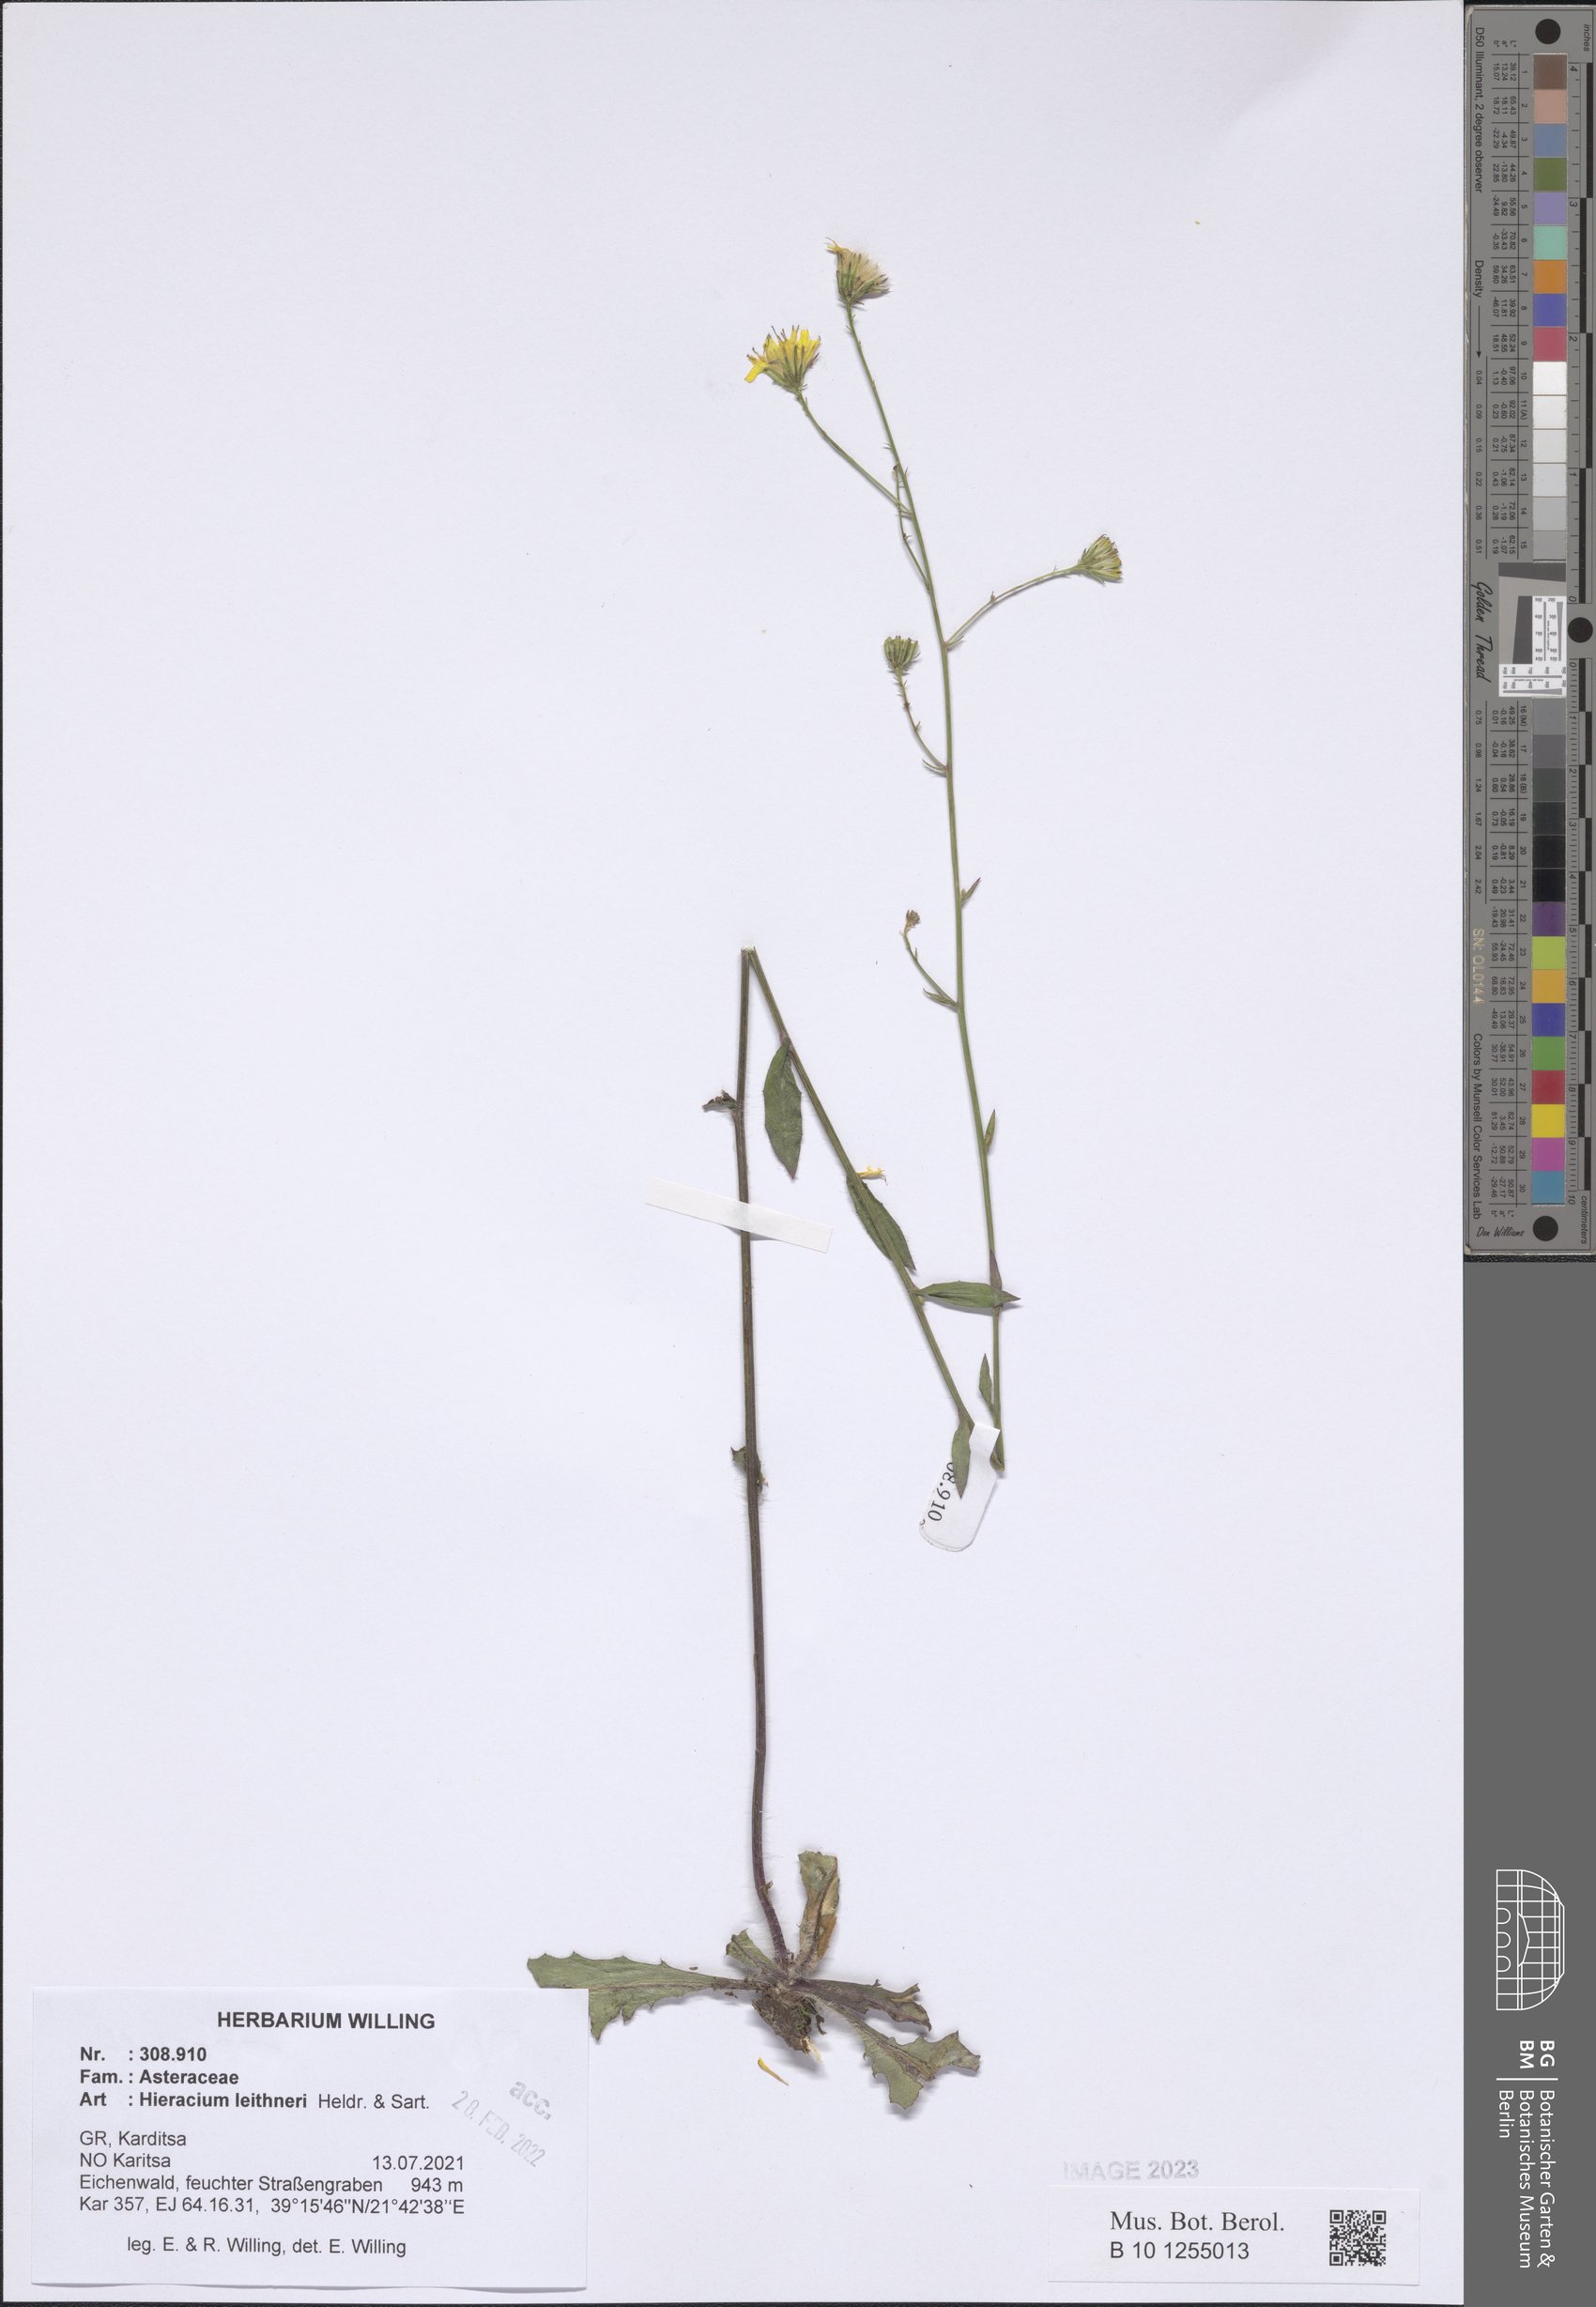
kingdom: Plantae
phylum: Tracheophyta
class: Magnoliopsida
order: Asterales
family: Asteraceae
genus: Hieracium
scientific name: Hieracium lazistanum
